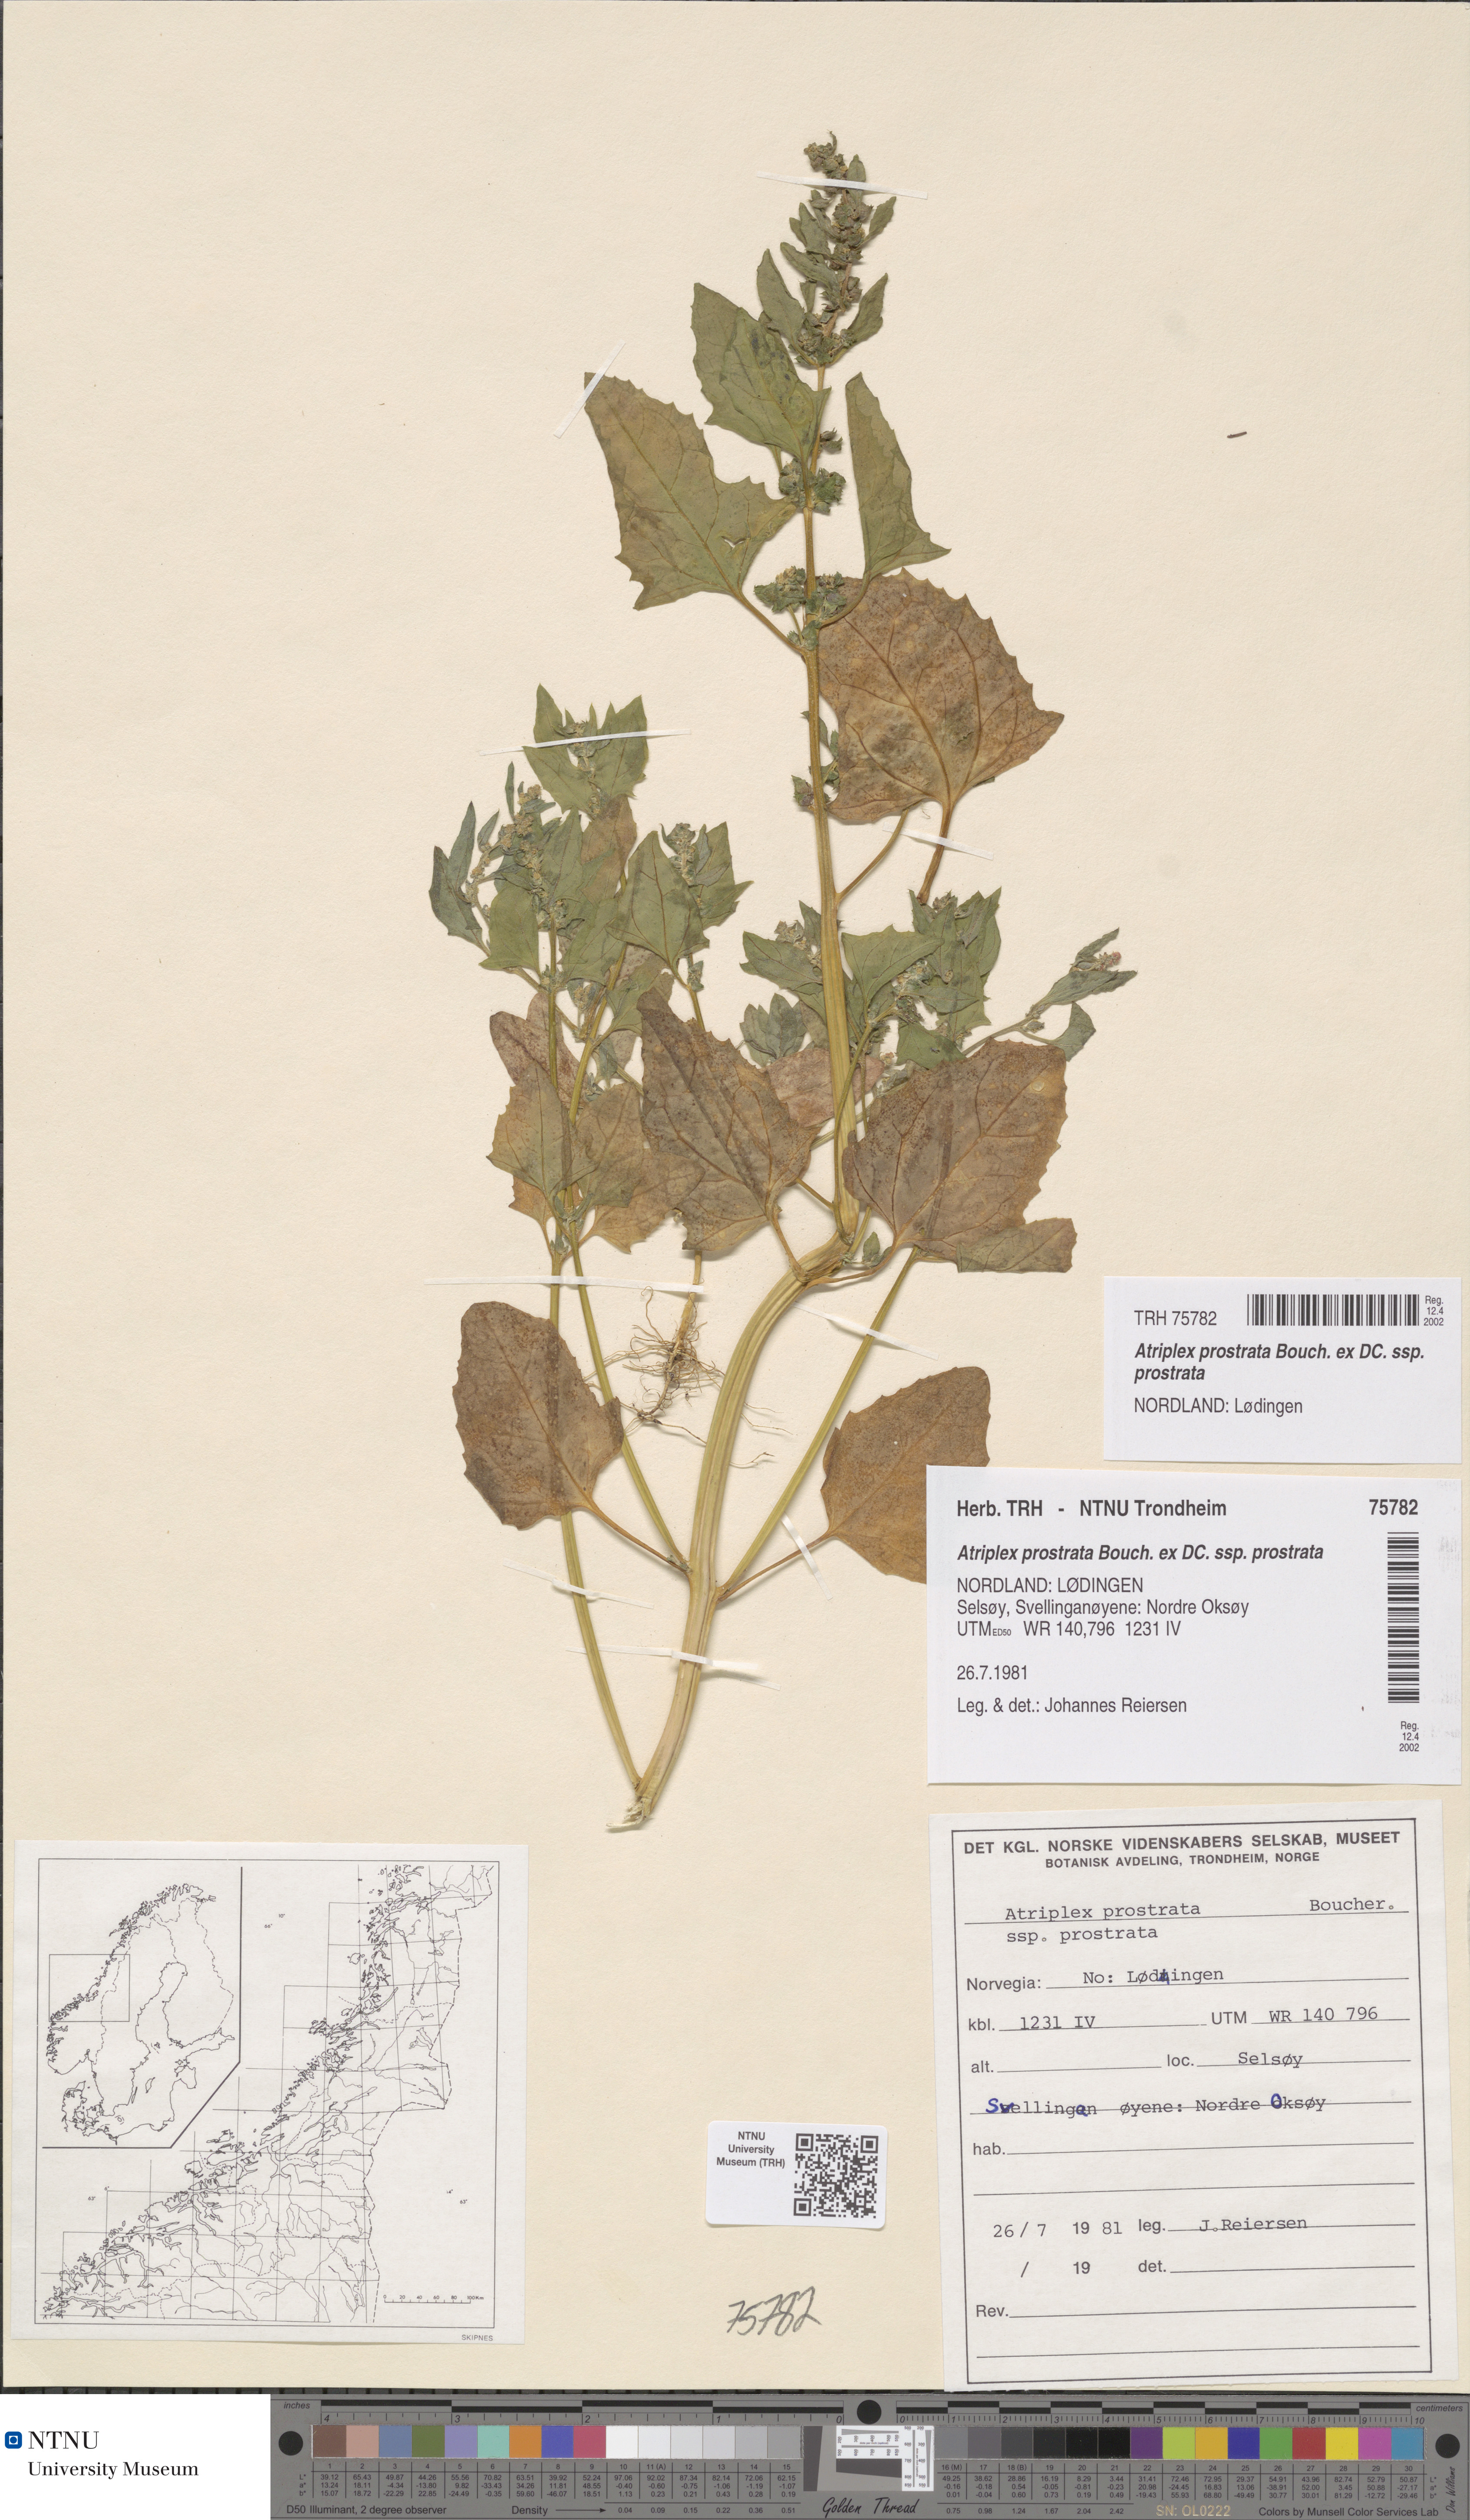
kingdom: Plantae
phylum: Tracheophyta
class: Magnoliopsida
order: Caryophyllales
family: Amaranthaceae
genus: Atriplex
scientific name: Atriplex prostrata
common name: Spear-leaved orache
